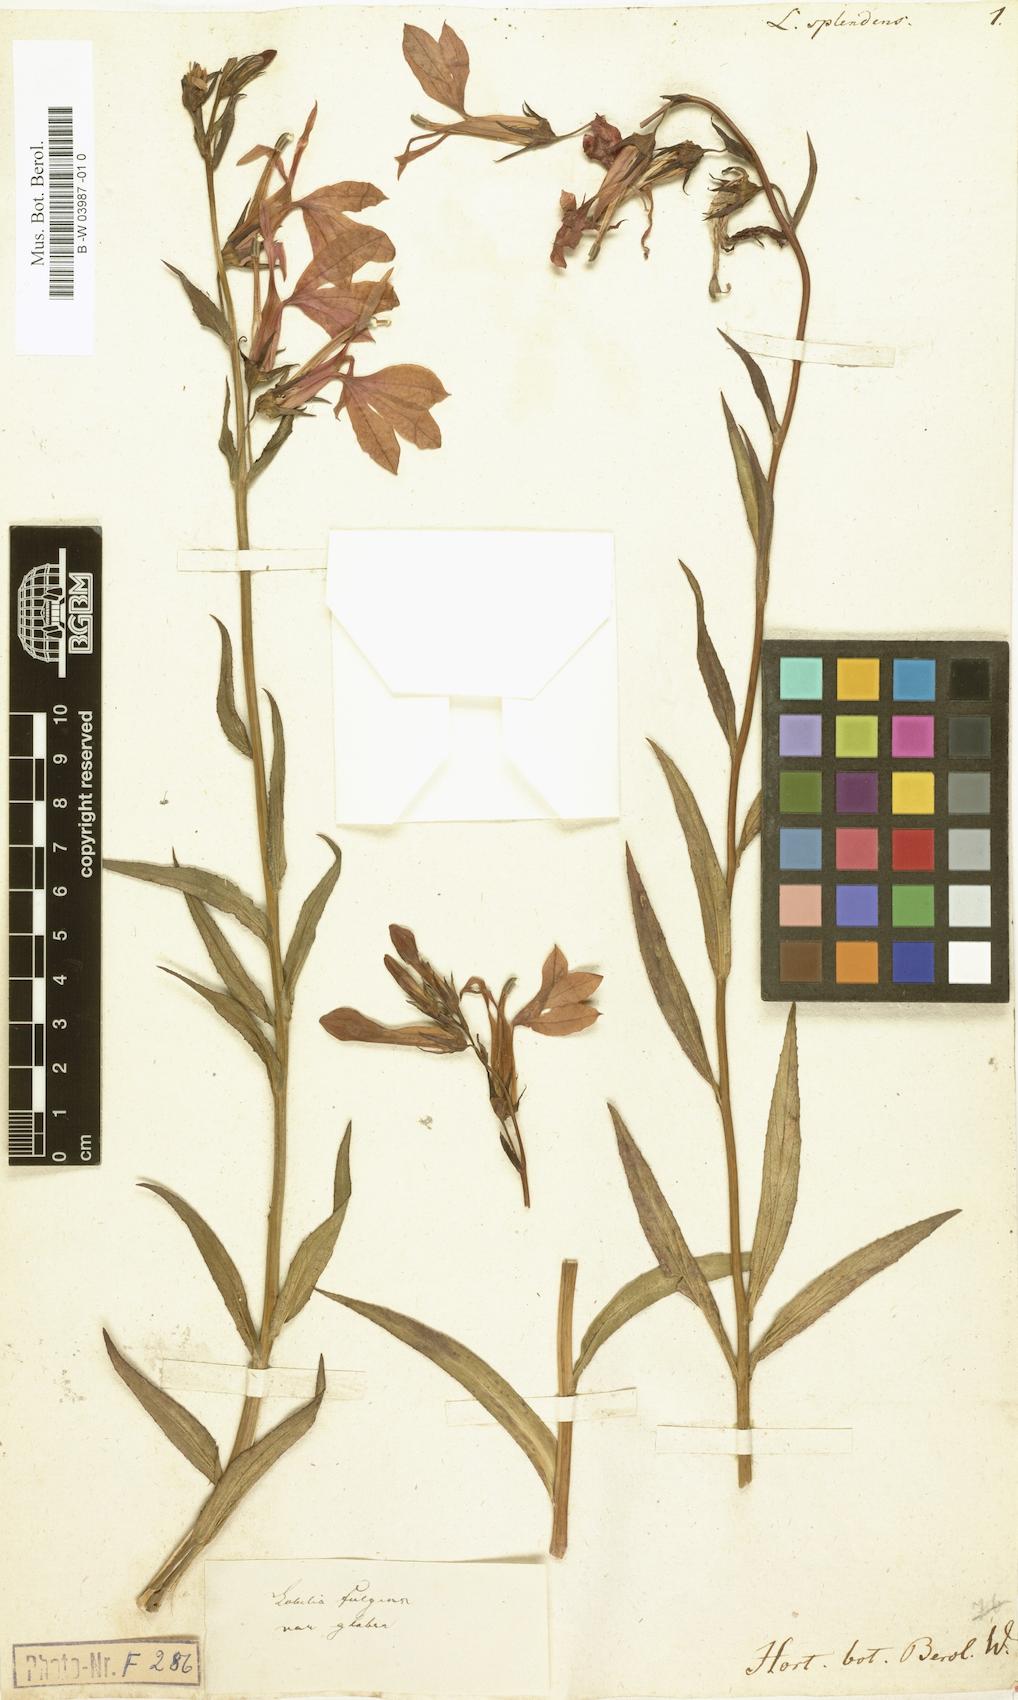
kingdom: Plantae
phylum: Tracheophyta
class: Magnoliopsida
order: Asterales
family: Campanulaceae
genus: Lobelia
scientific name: Lobelia cardinalis
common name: Cardinal flower
